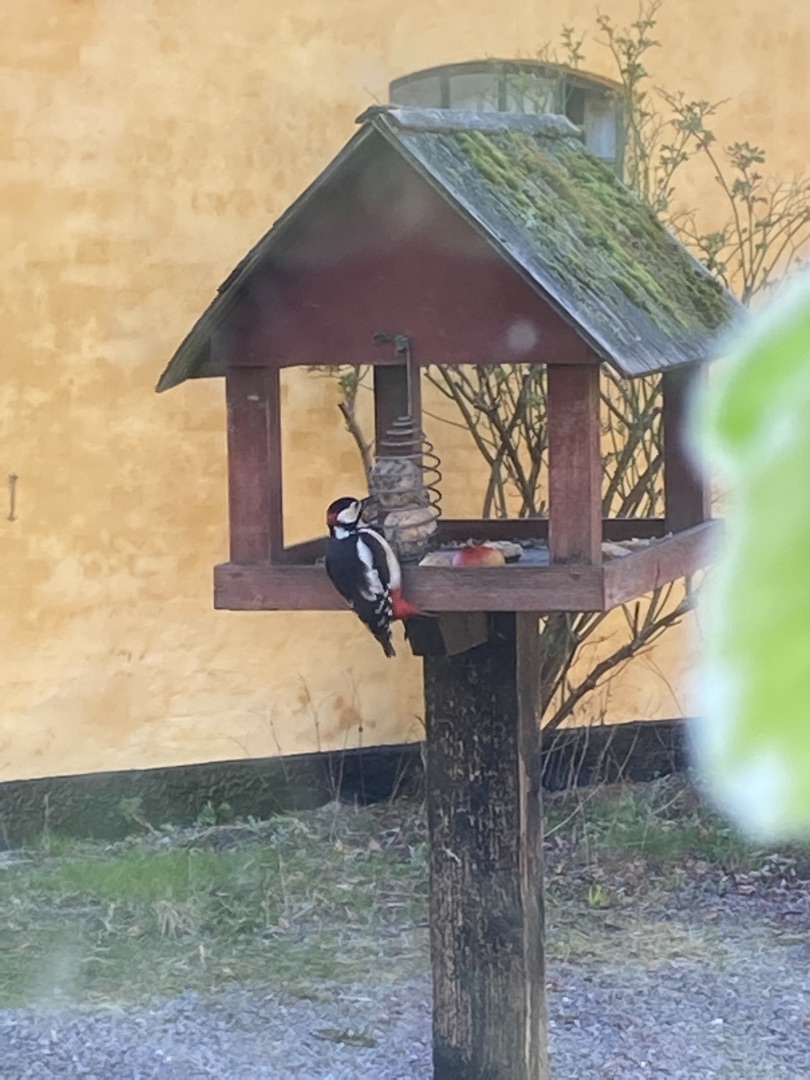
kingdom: Animalia
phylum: Chordata
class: Aves
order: Piciformes
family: Picidae
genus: Dendrocopos
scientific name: Dendrocopos major
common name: Stor flagspætte
